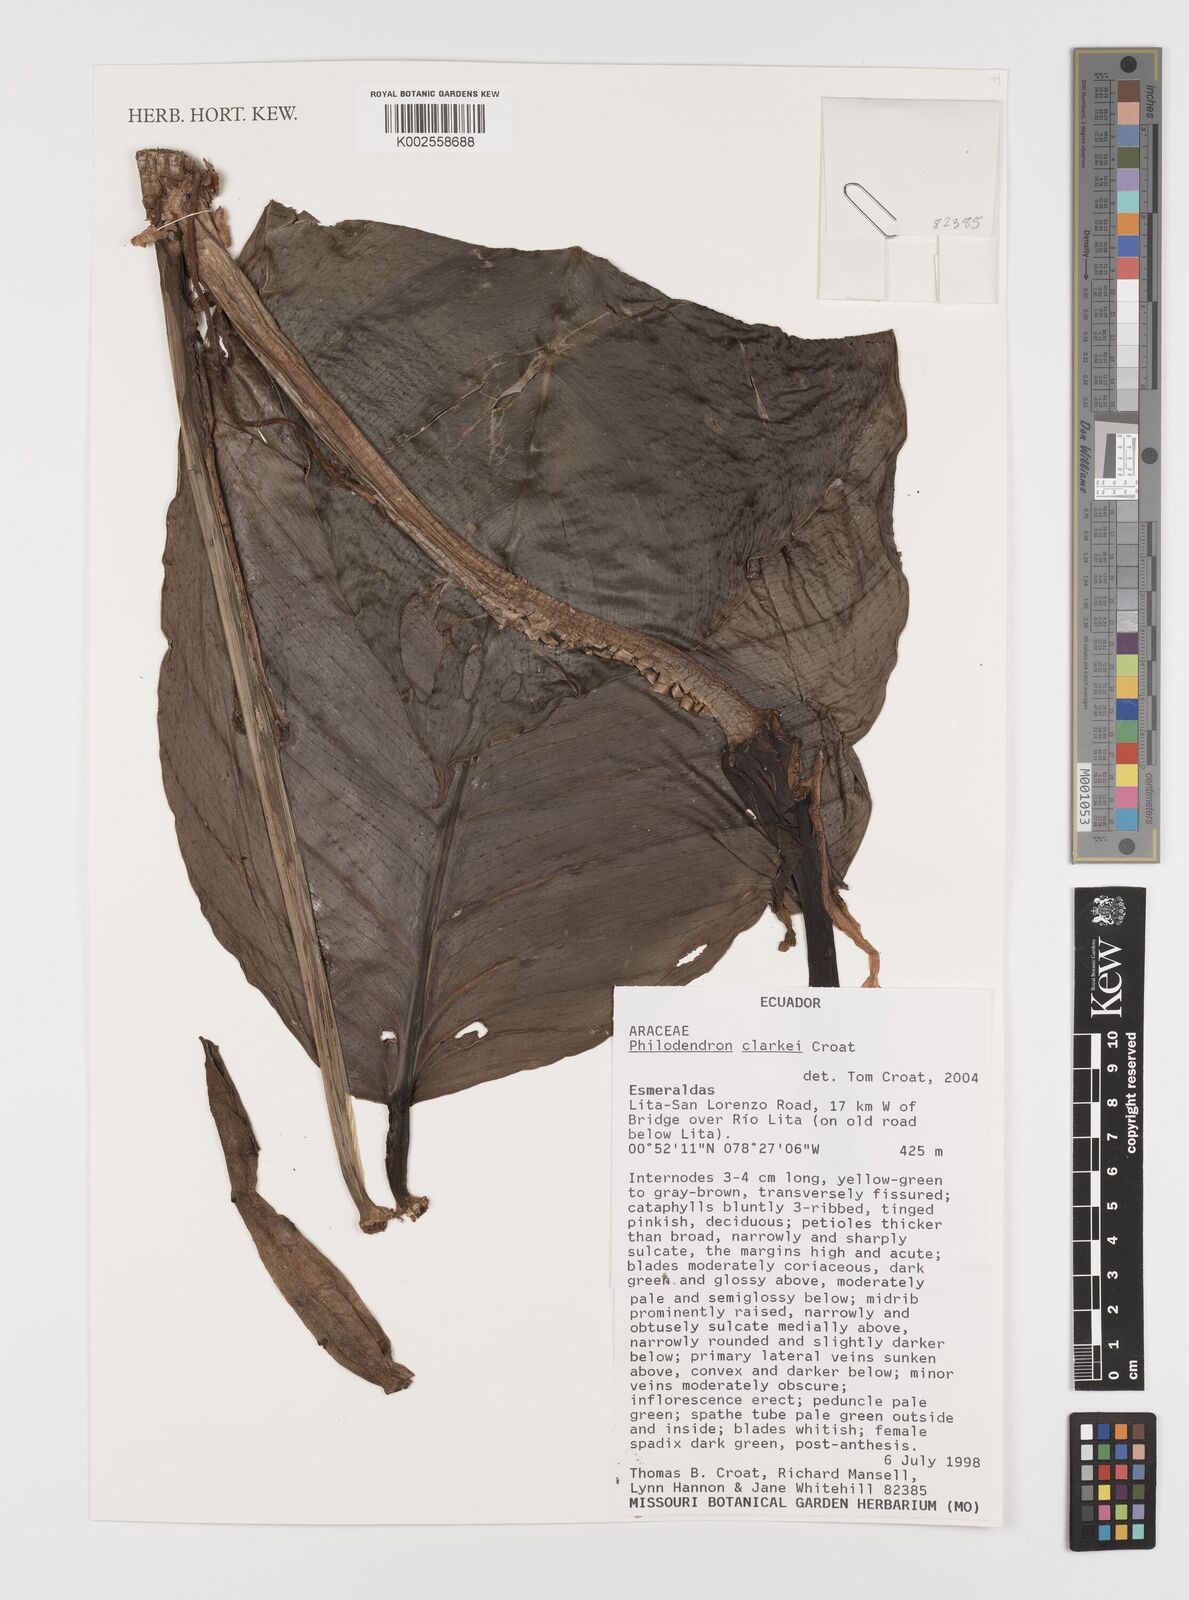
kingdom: Plantae
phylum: Tracheophyta
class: Liliopsida
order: Alismatales
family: Araceae
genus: Philodendron
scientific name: Philodendron clarkei
